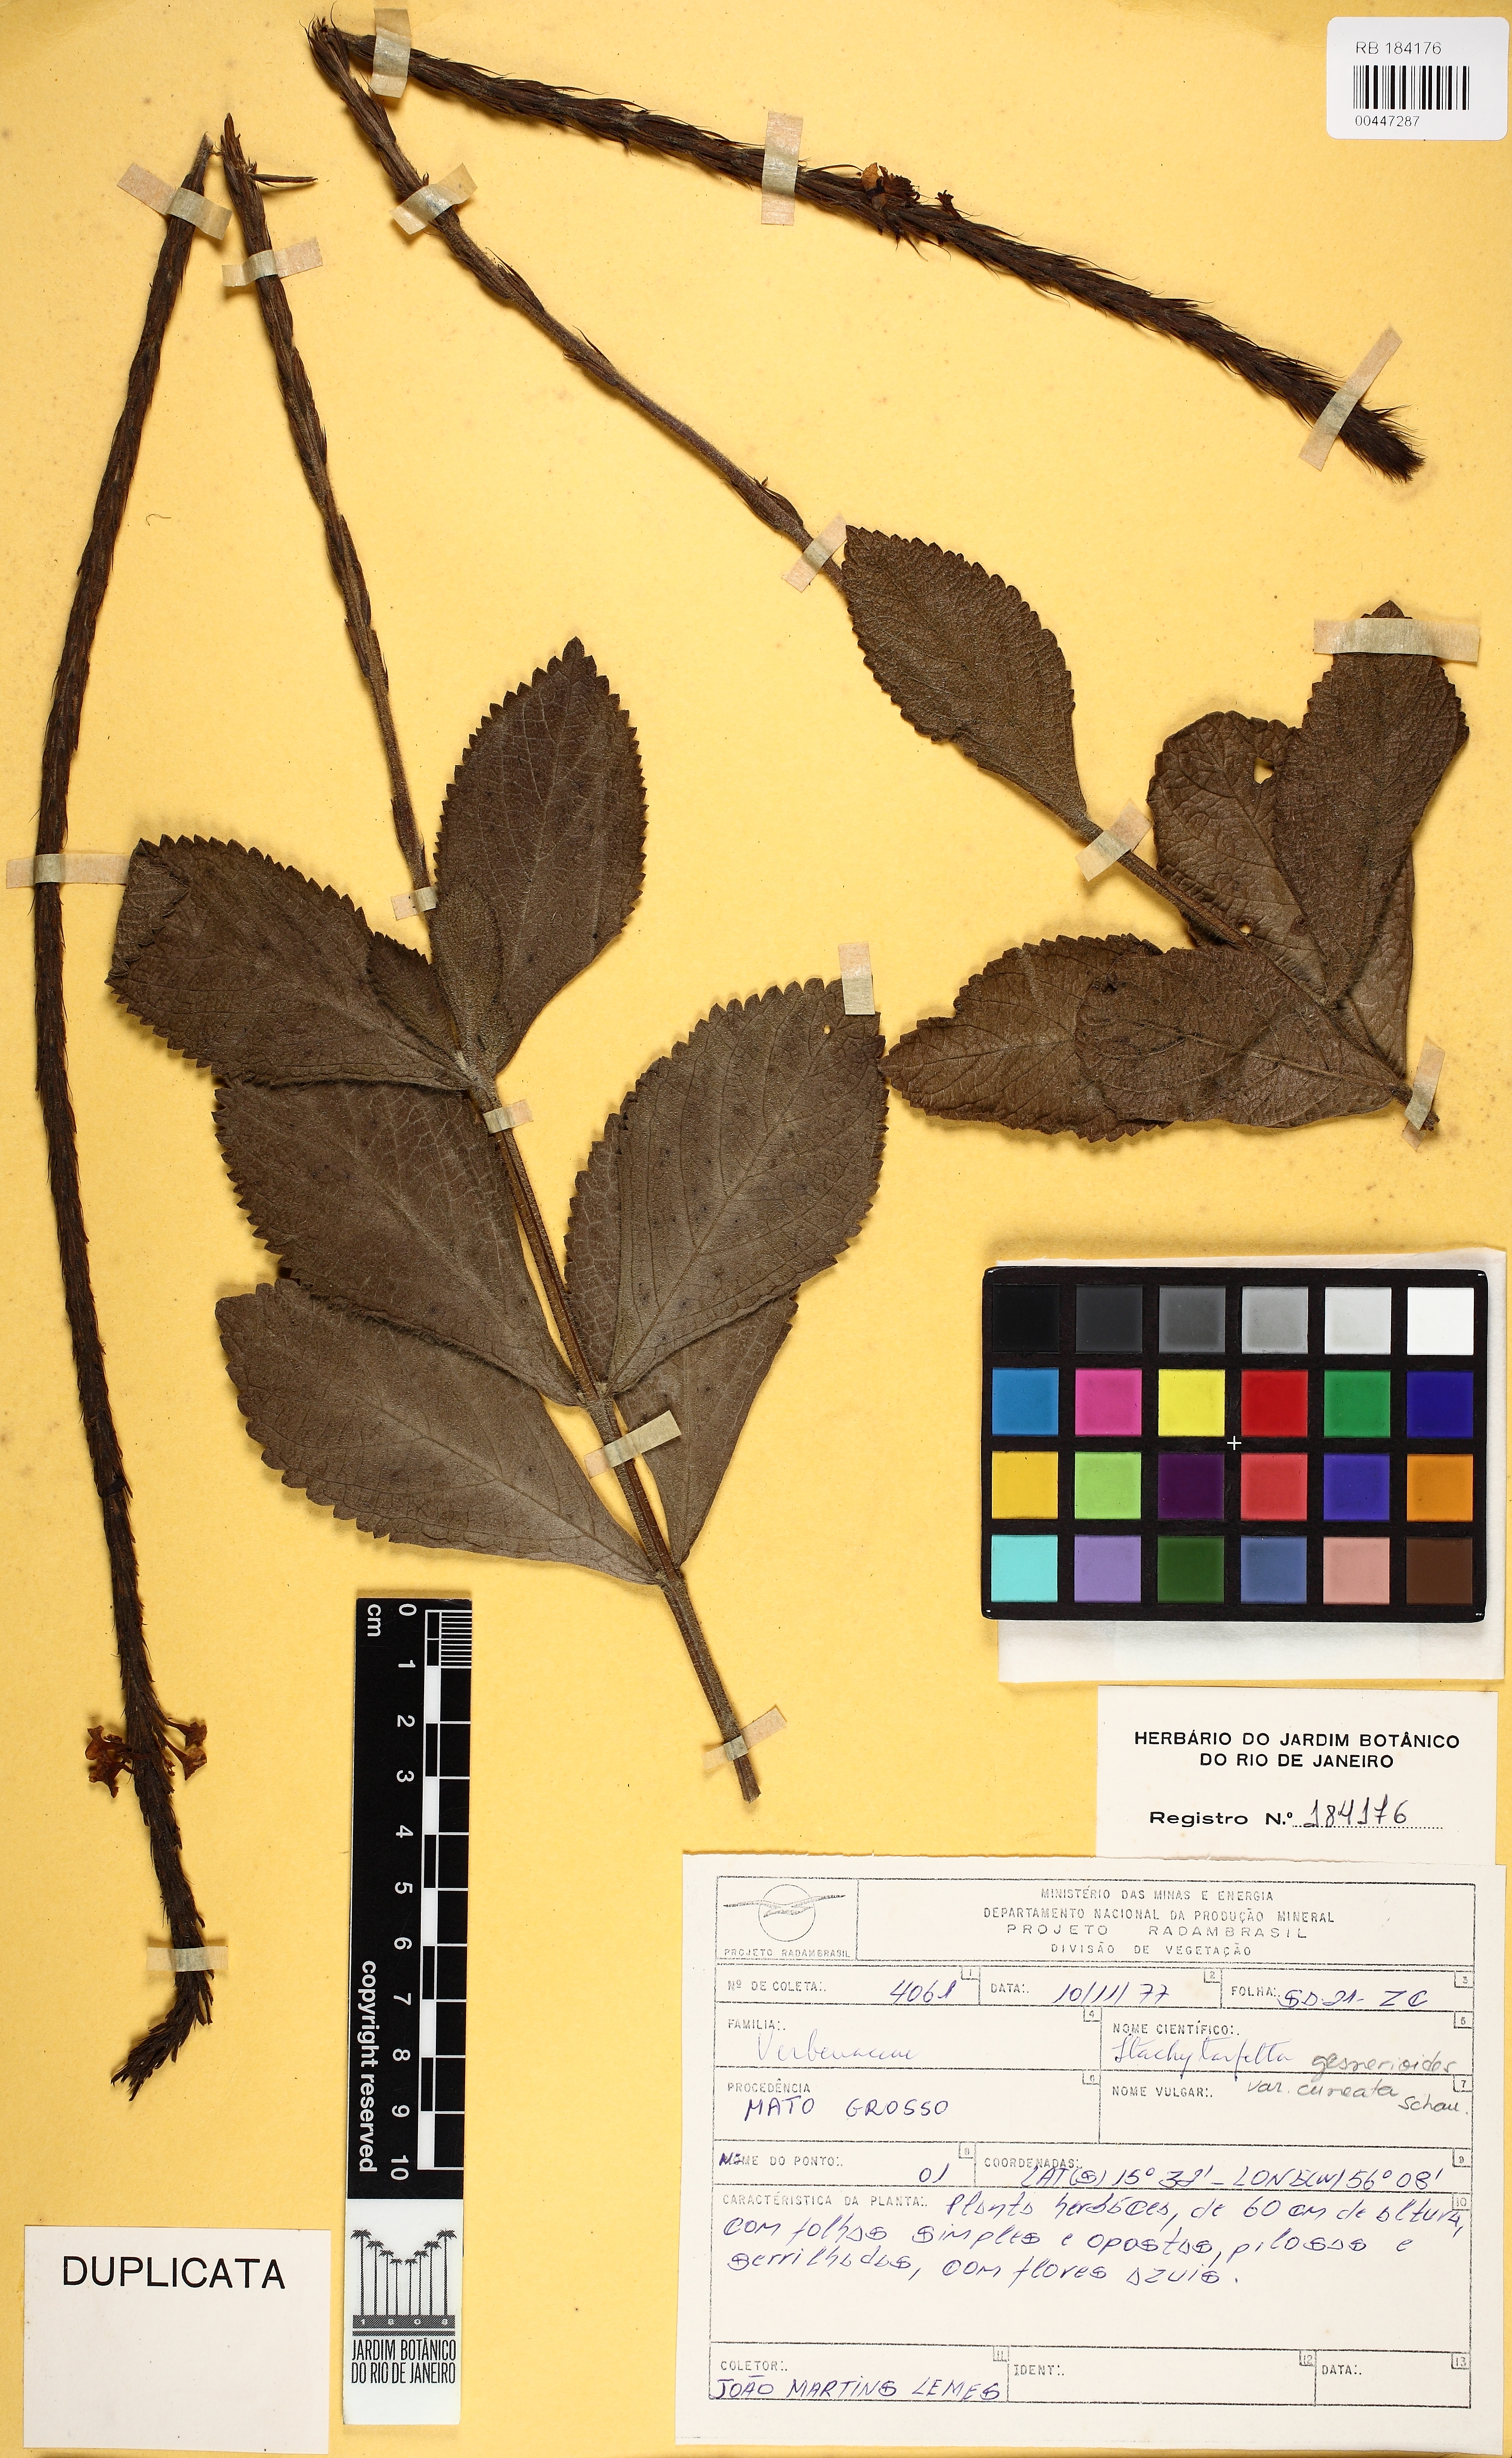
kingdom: Plantae
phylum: Tracheophyta
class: Magnoliopsida
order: Lamiales
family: Verbenaceae
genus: Stachytarpheta
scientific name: Stachytarpheta gesnerioides
